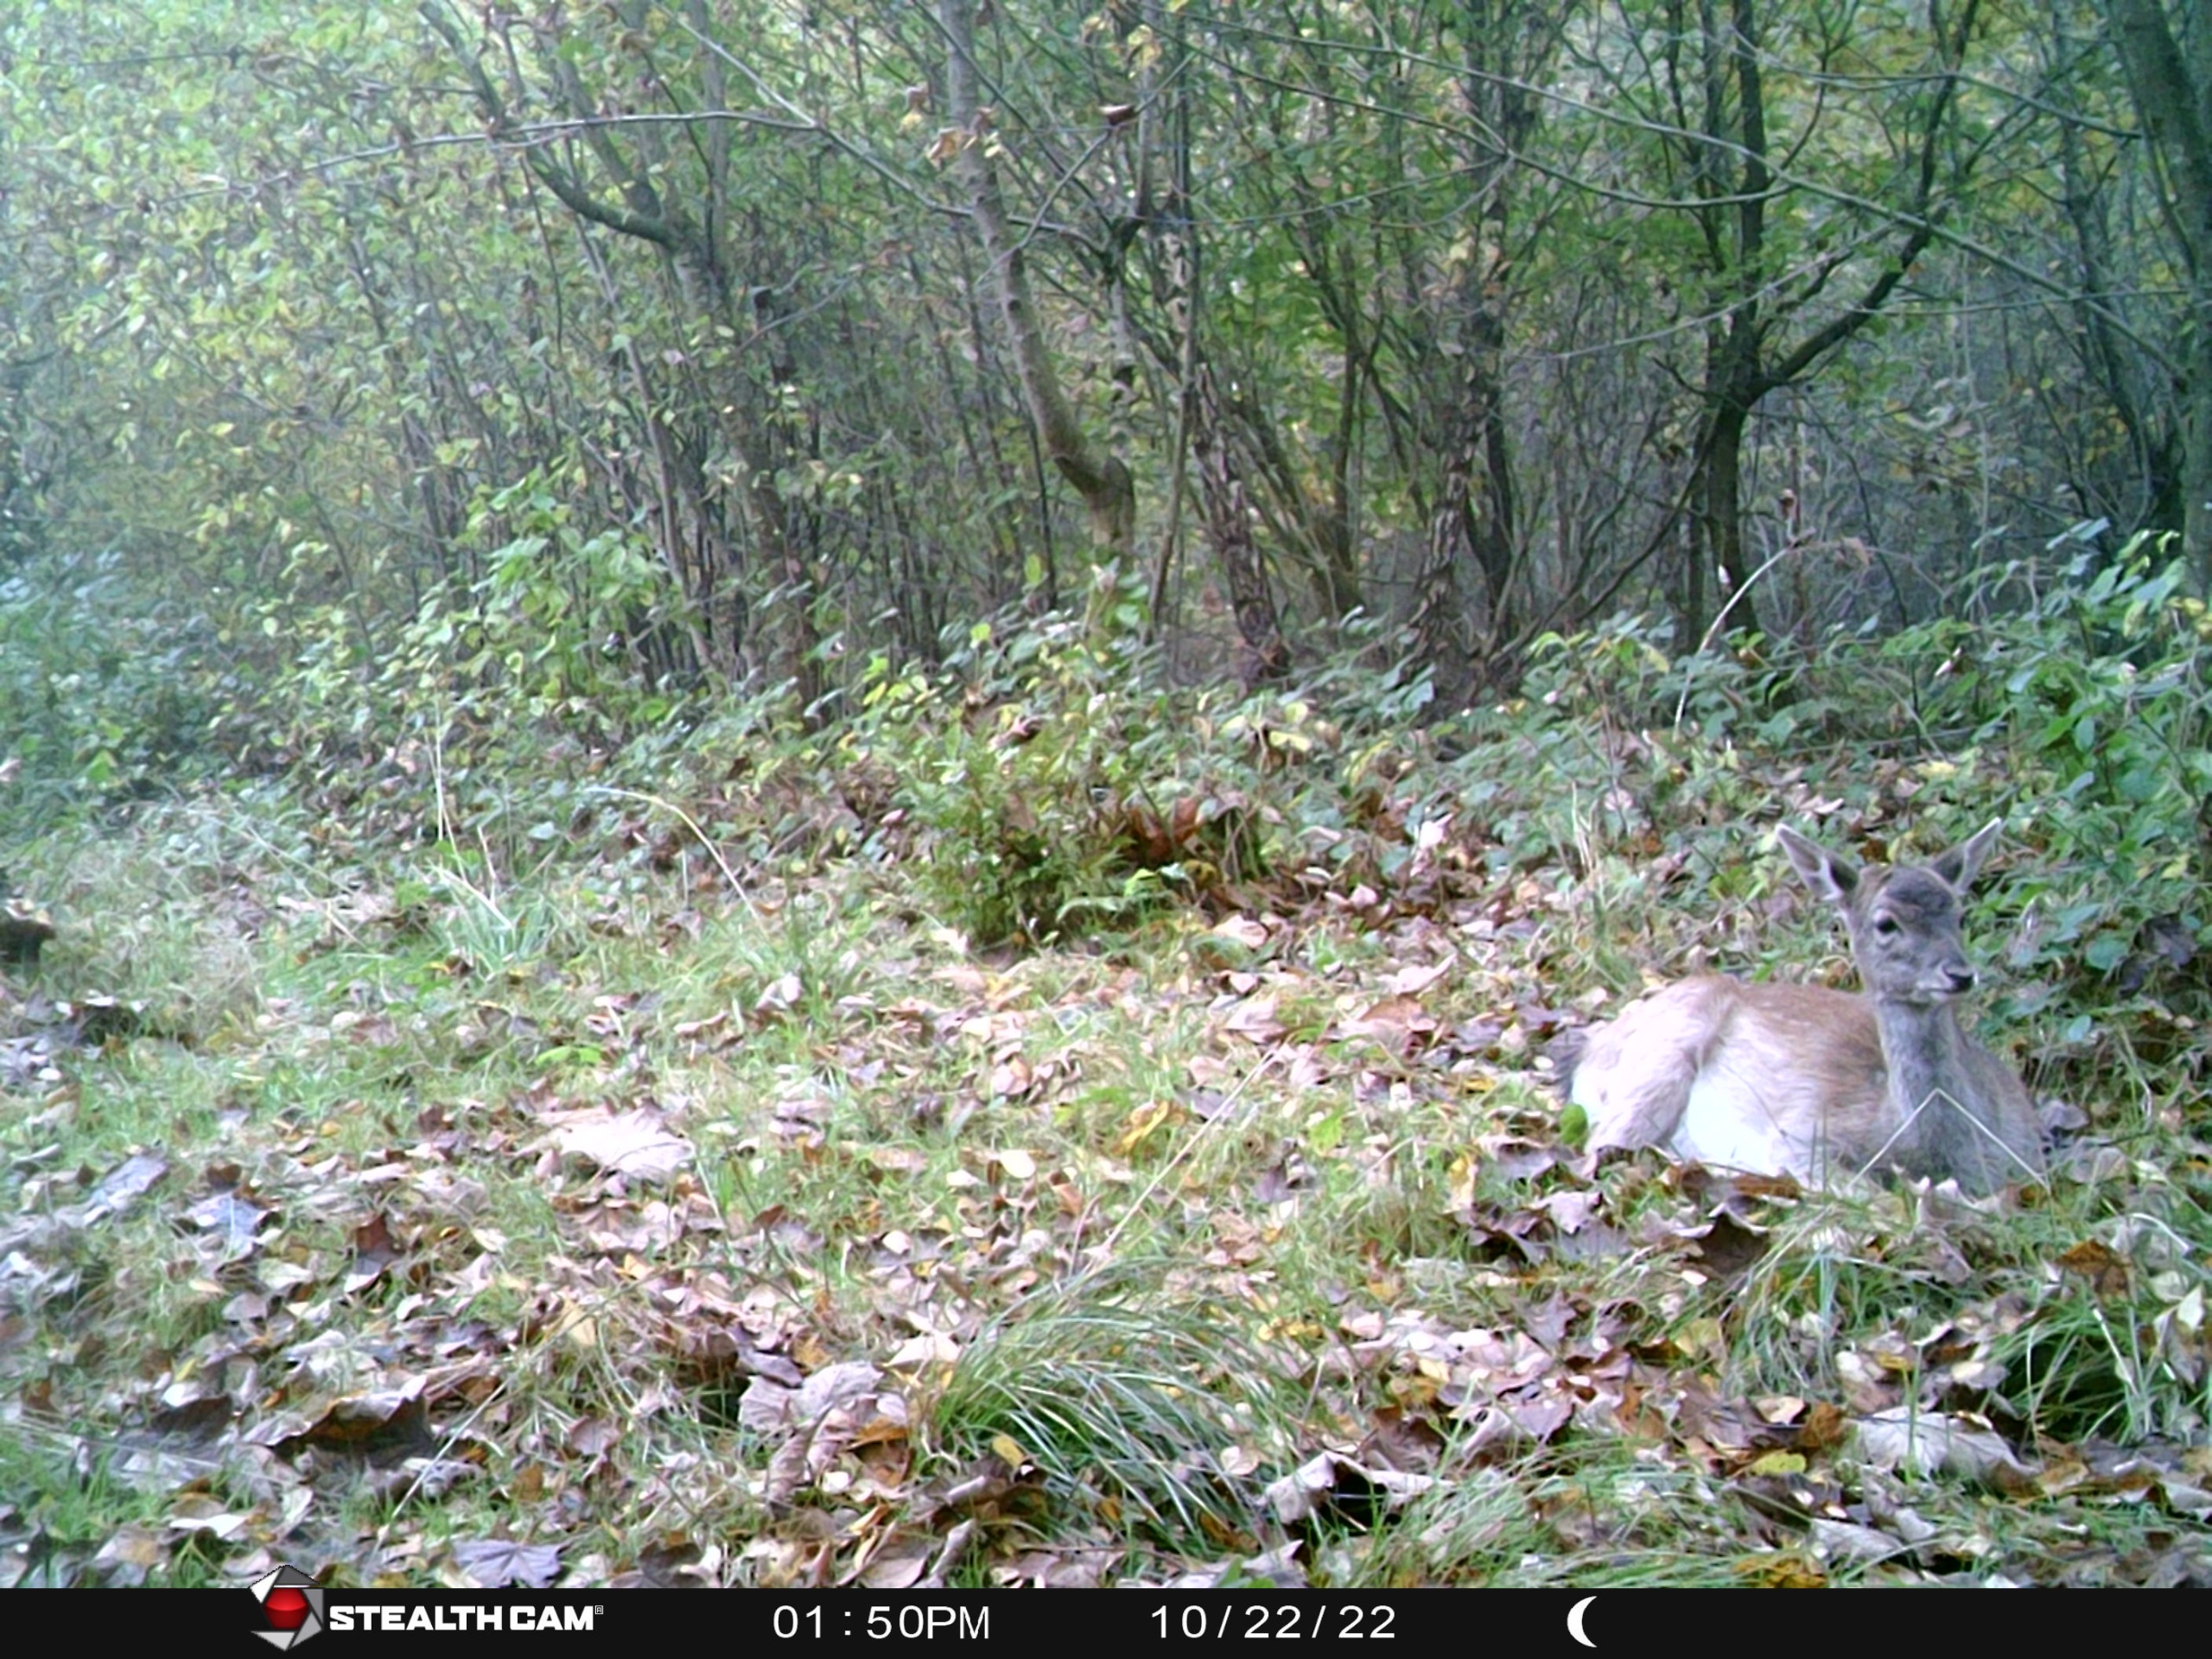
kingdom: Animalia
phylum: Chordata
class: Mammalia
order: Artiodactyla
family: Cervidae
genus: Dama
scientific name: Dama dama
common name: Dådyr
